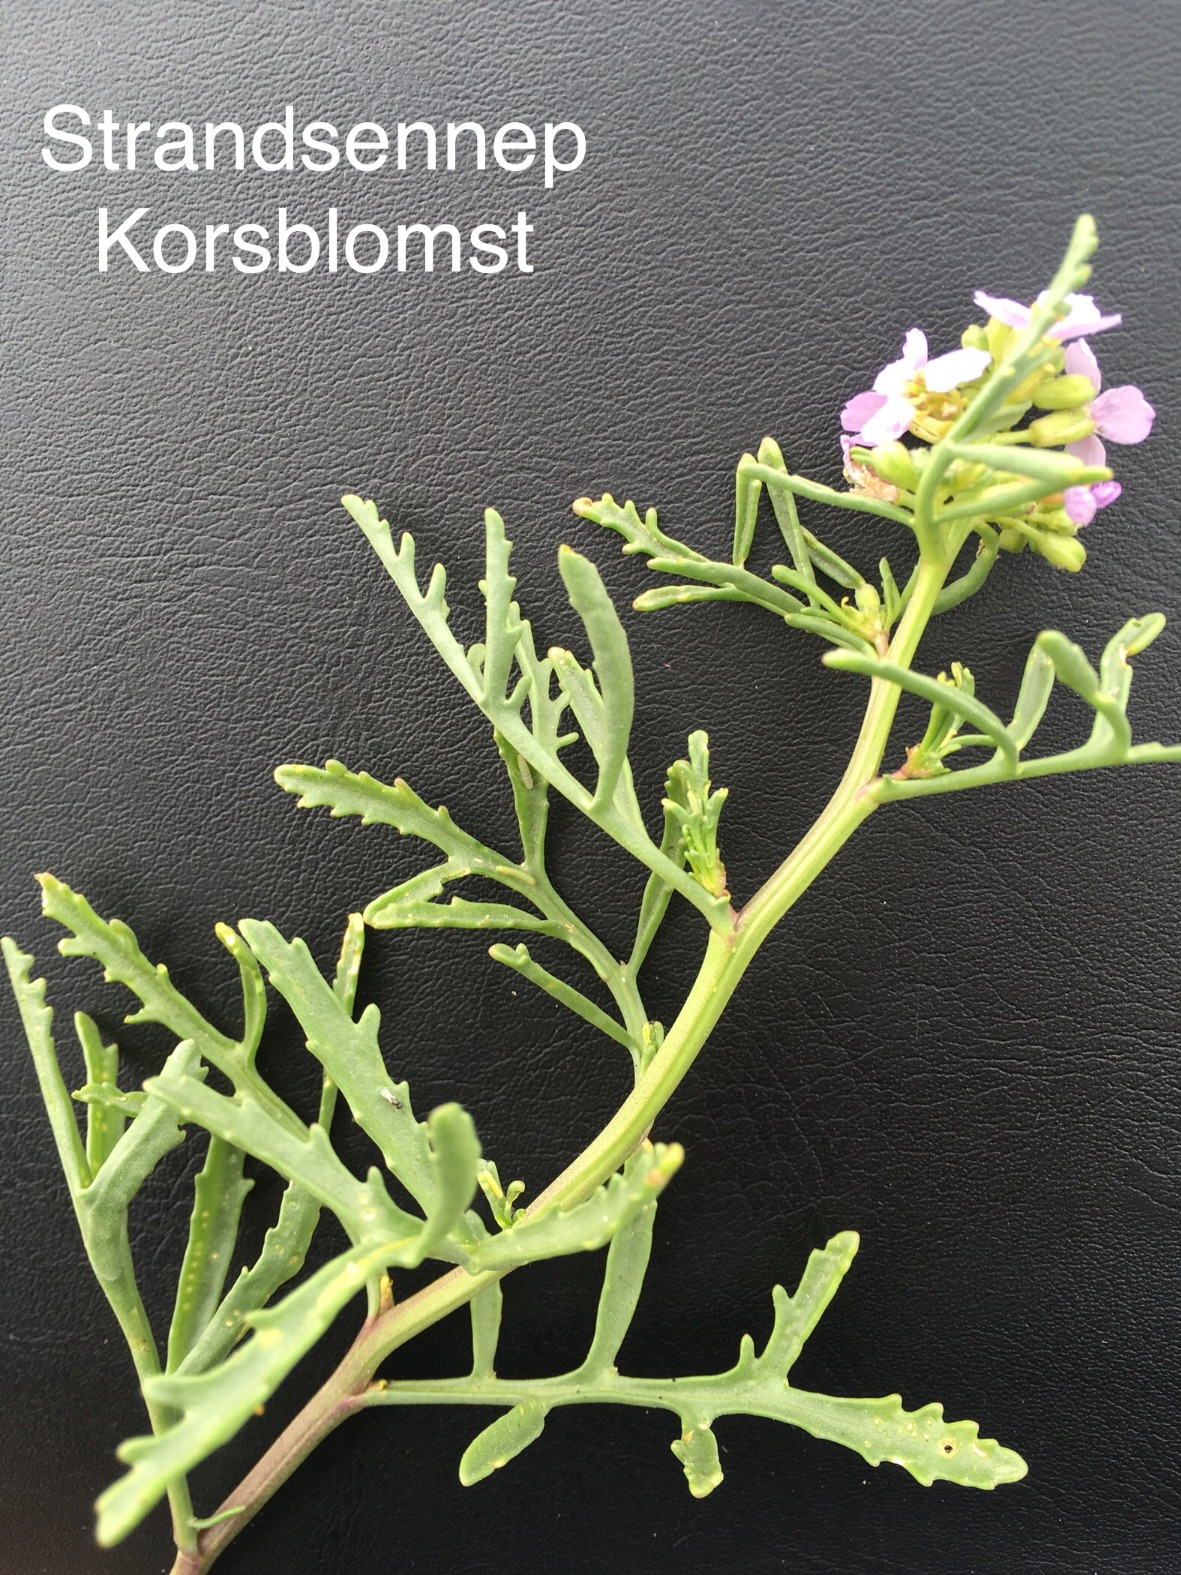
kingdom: Plantae
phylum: Tracheophyta
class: Magnoliopsida
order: Brassicales
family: Brassicaceae
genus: Cakile
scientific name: Cakile maritima
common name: Strandsennep
